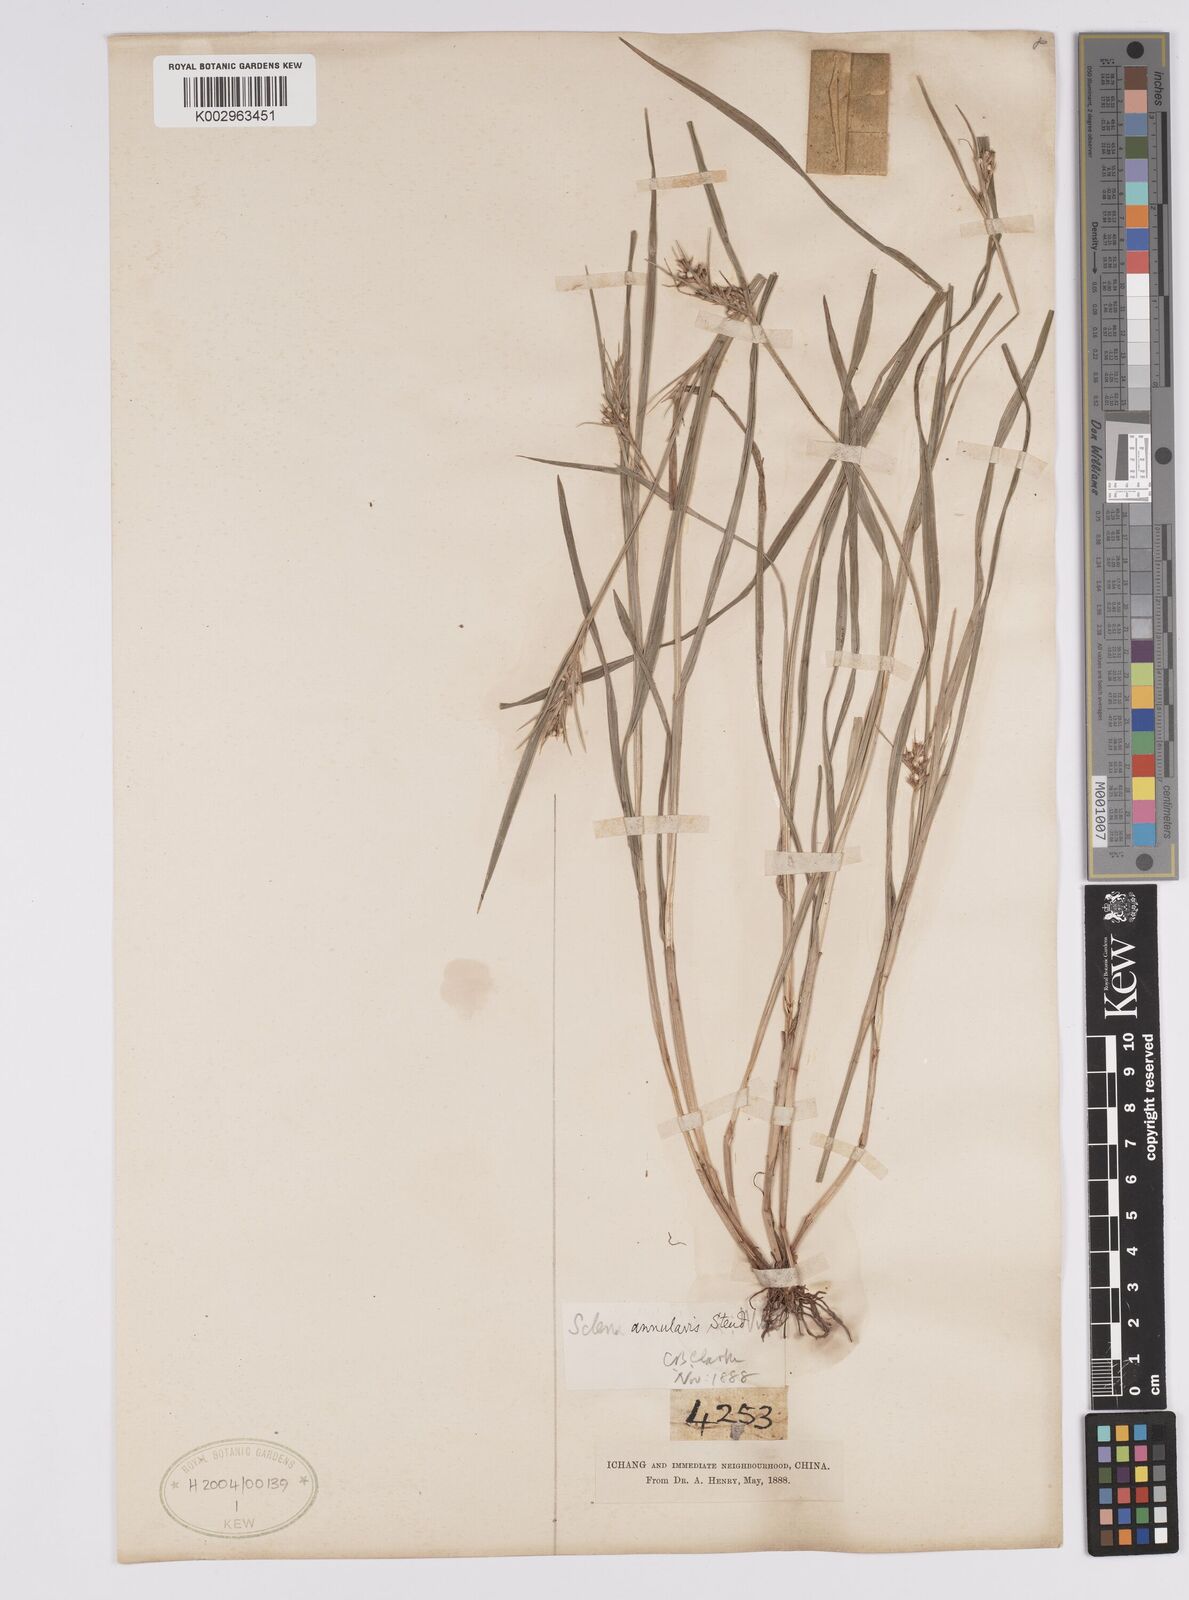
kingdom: Plantae
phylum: Tracheophyta
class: Liliopsida
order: Poales
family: Cyperaceae
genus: Scleria
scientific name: Scleria annularis
